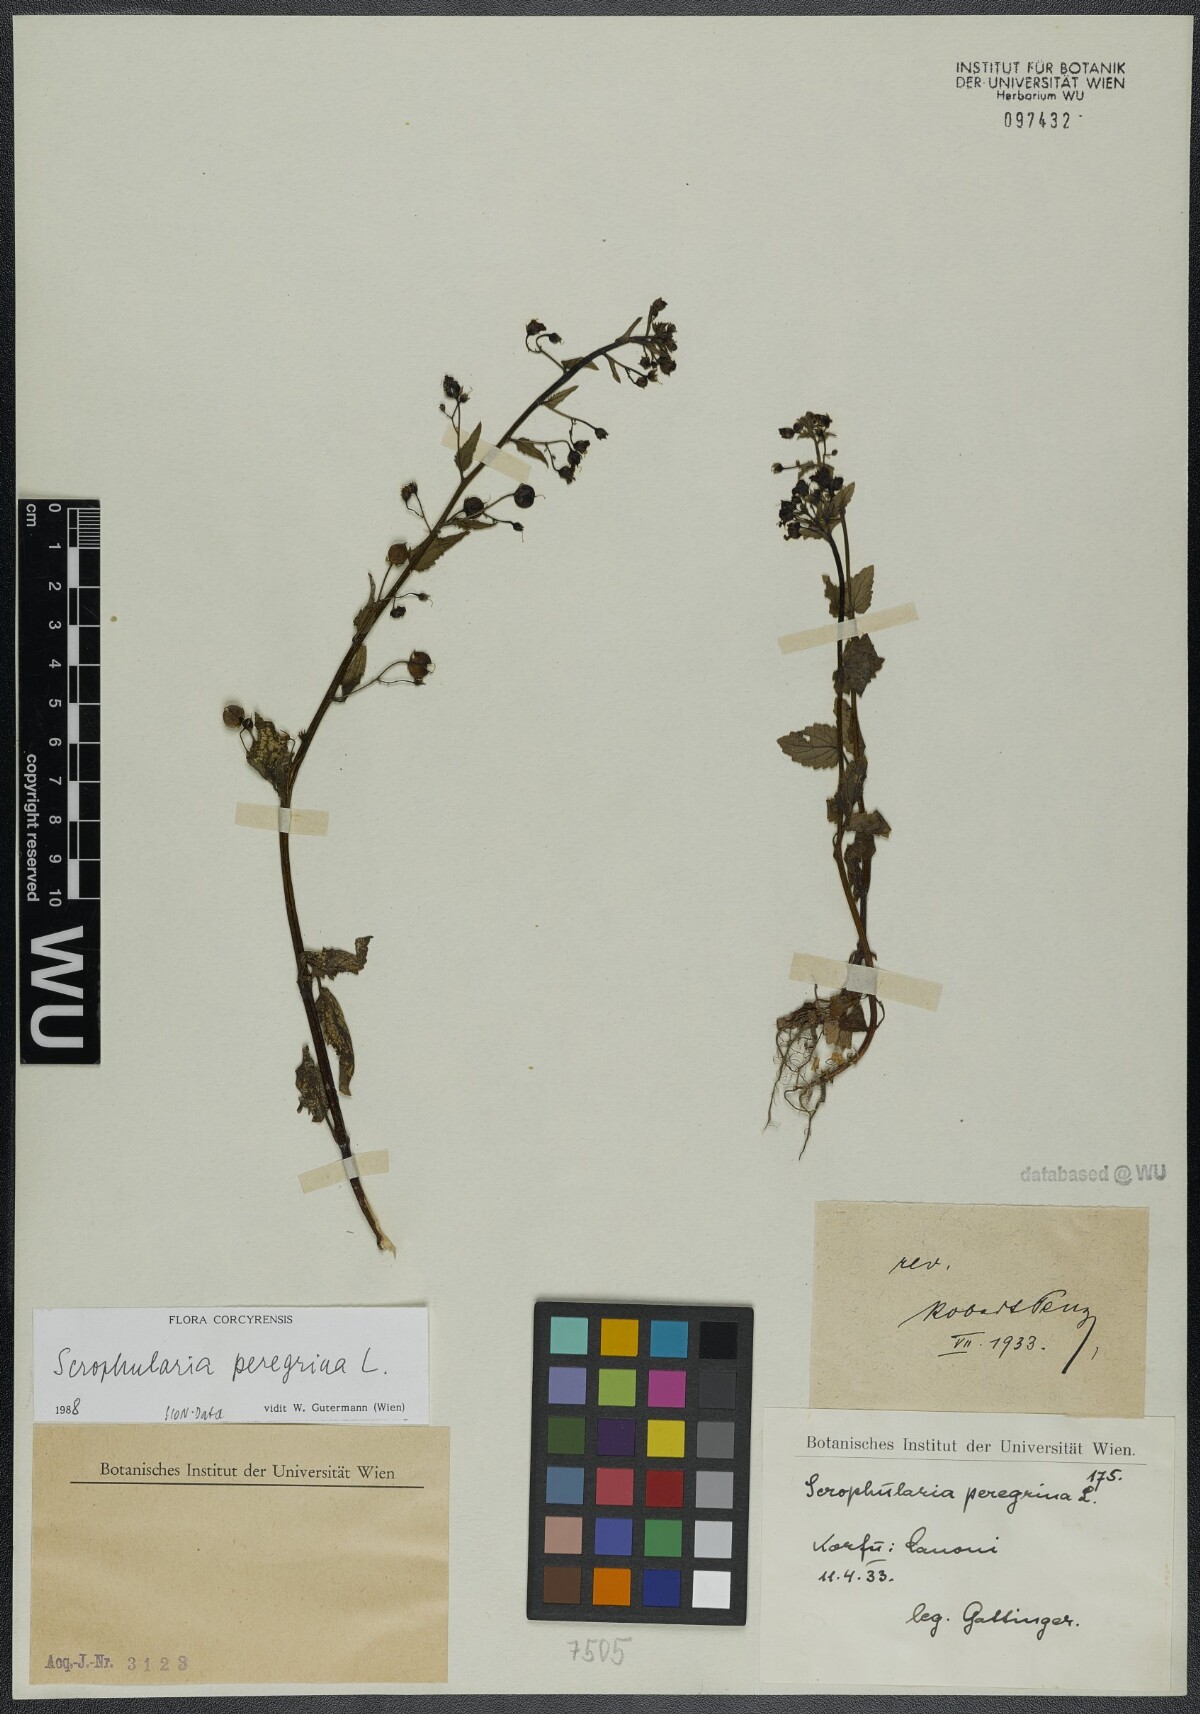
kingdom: Plantae
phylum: Tracheophyta
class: Magnoliopsida
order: Lamiales
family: Scrophulariaceae
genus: Scrophularia
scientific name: Scrophularia peregrina
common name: Mediterranean figwort
